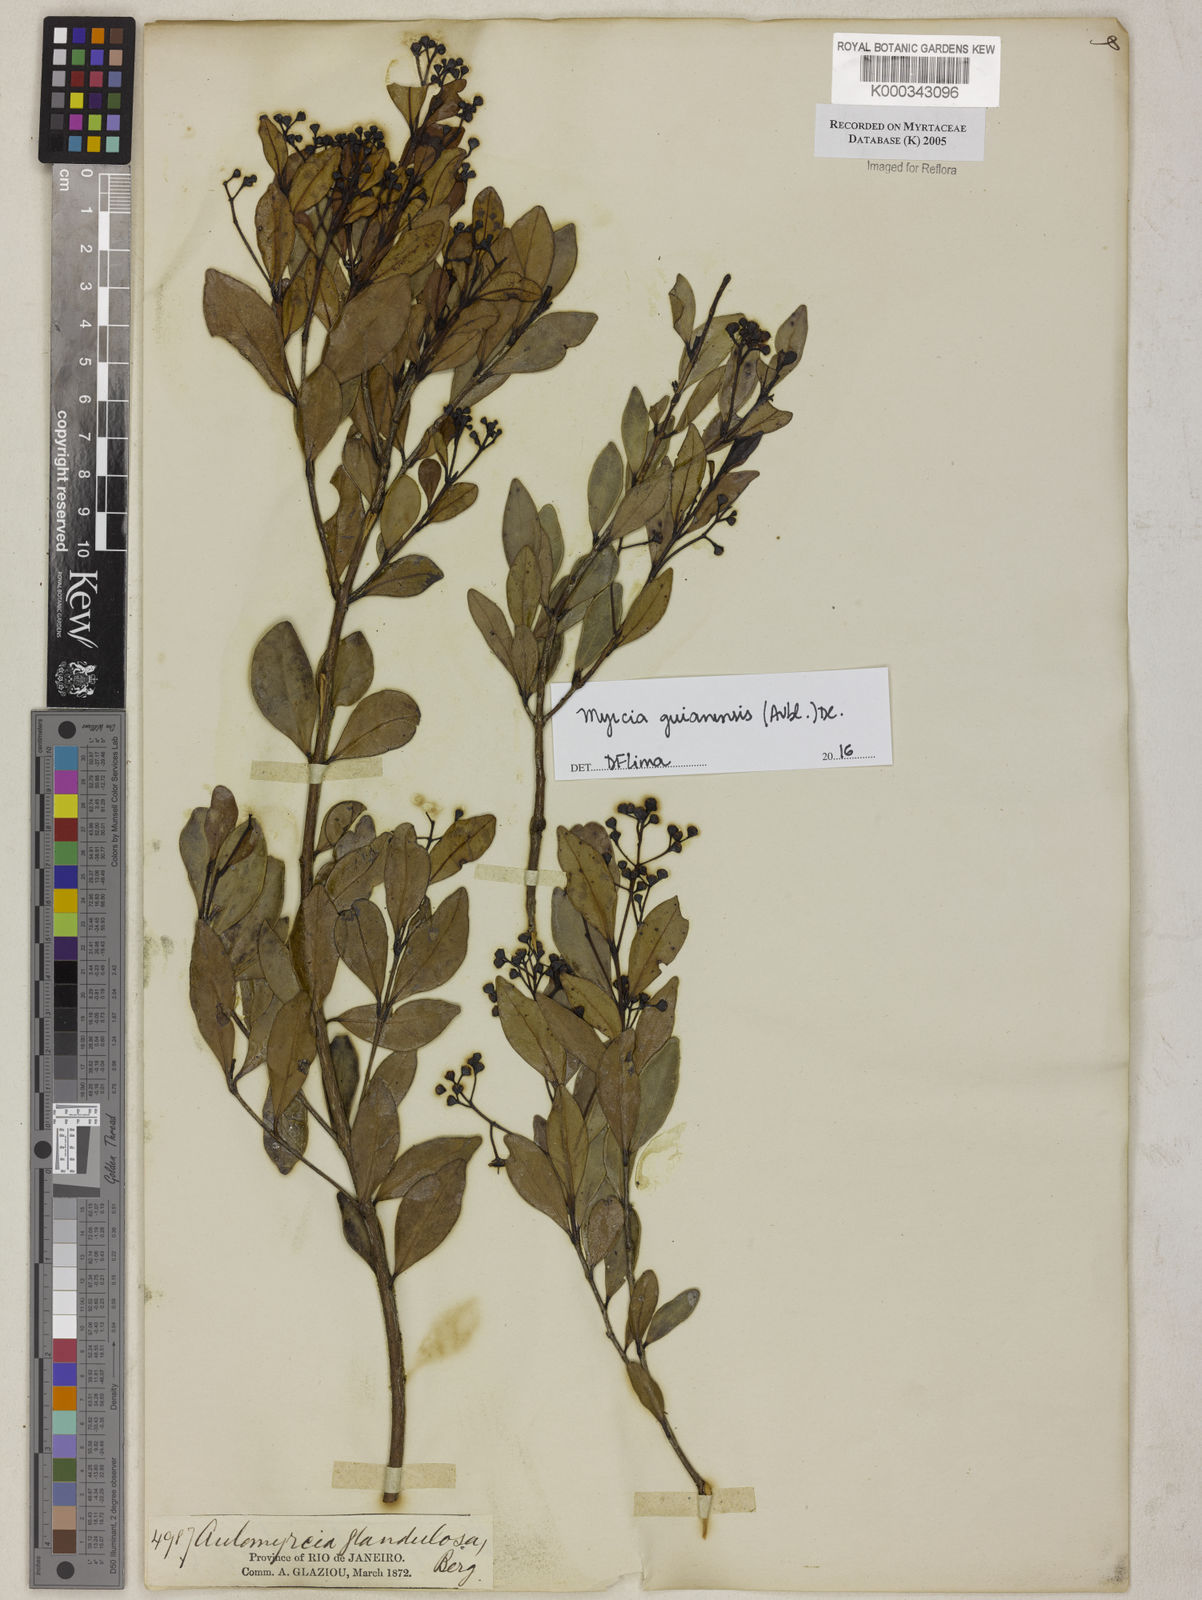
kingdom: Plantae
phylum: Tracheophyta
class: Magnoliopsida
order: Myrtales
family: Myrtaceae
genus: Myrcia
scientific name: Myrcia guianensis
